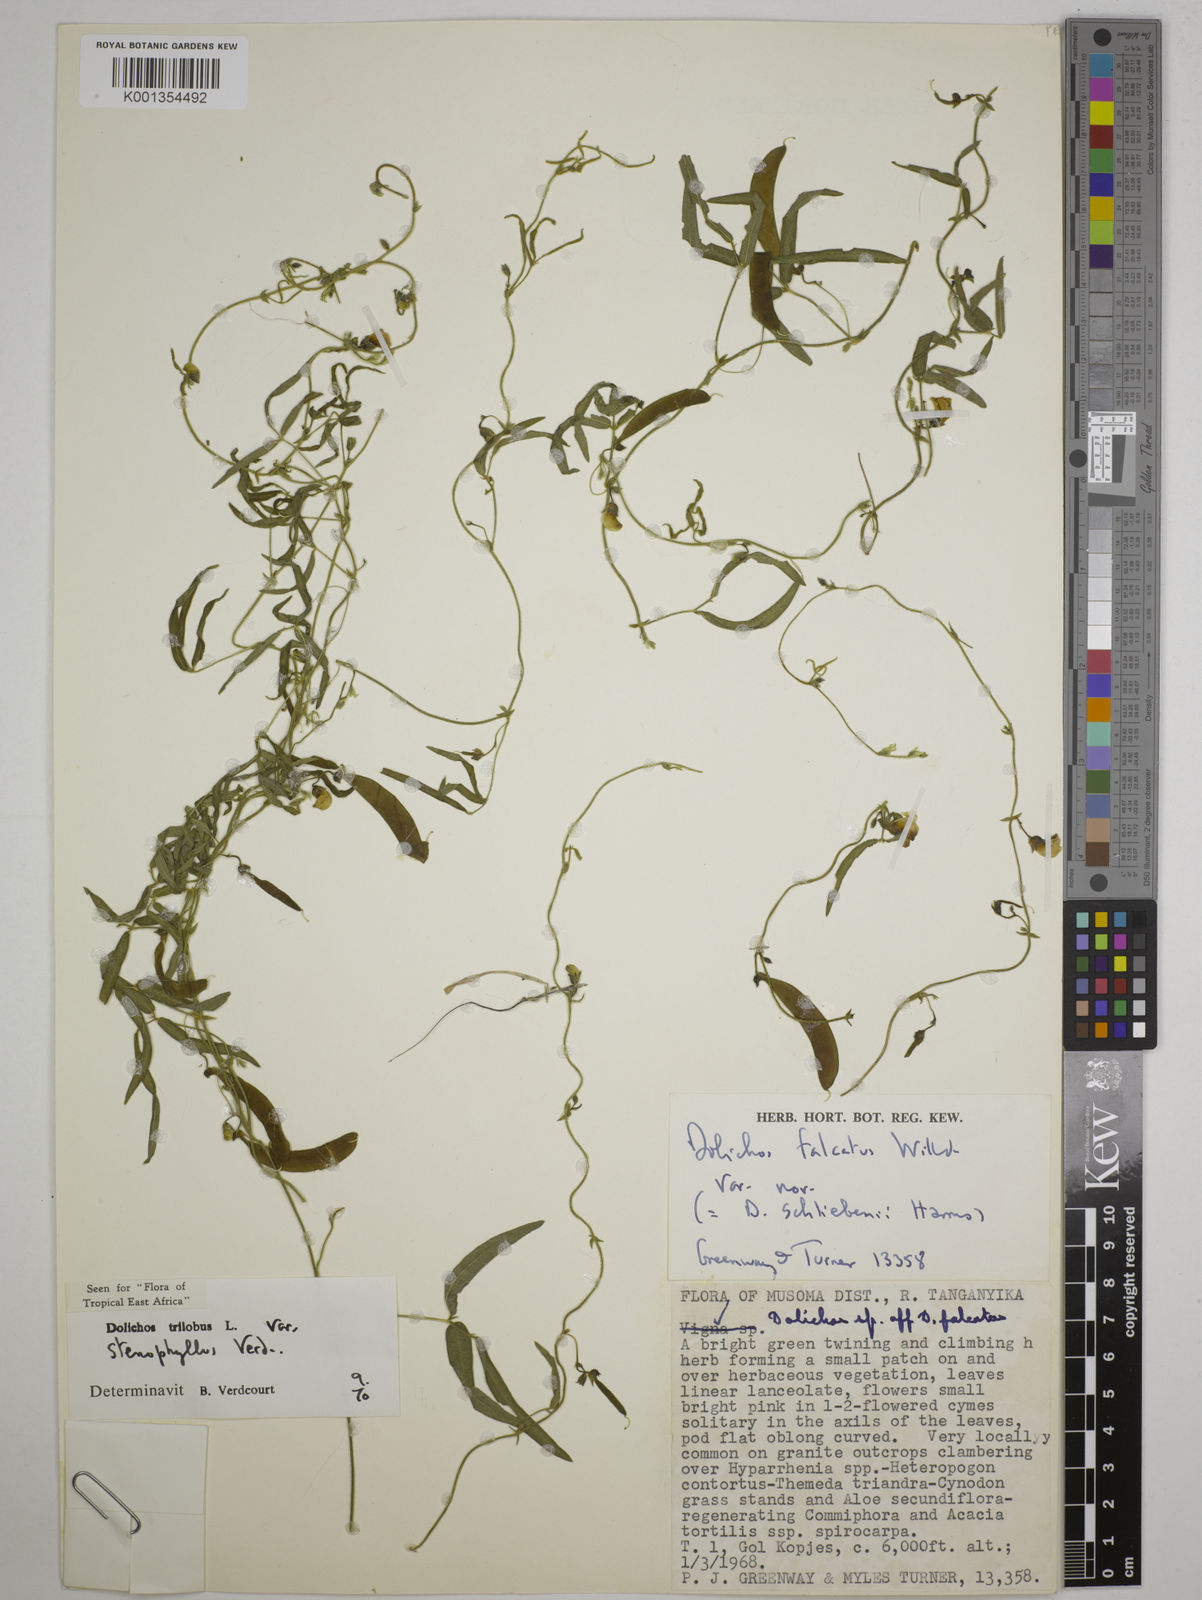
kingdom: Plantae
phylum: Tracheophyta
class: Magnoliopsida
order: Fabales
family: Fabaceae
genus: Dolichos
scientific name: Dolichos
